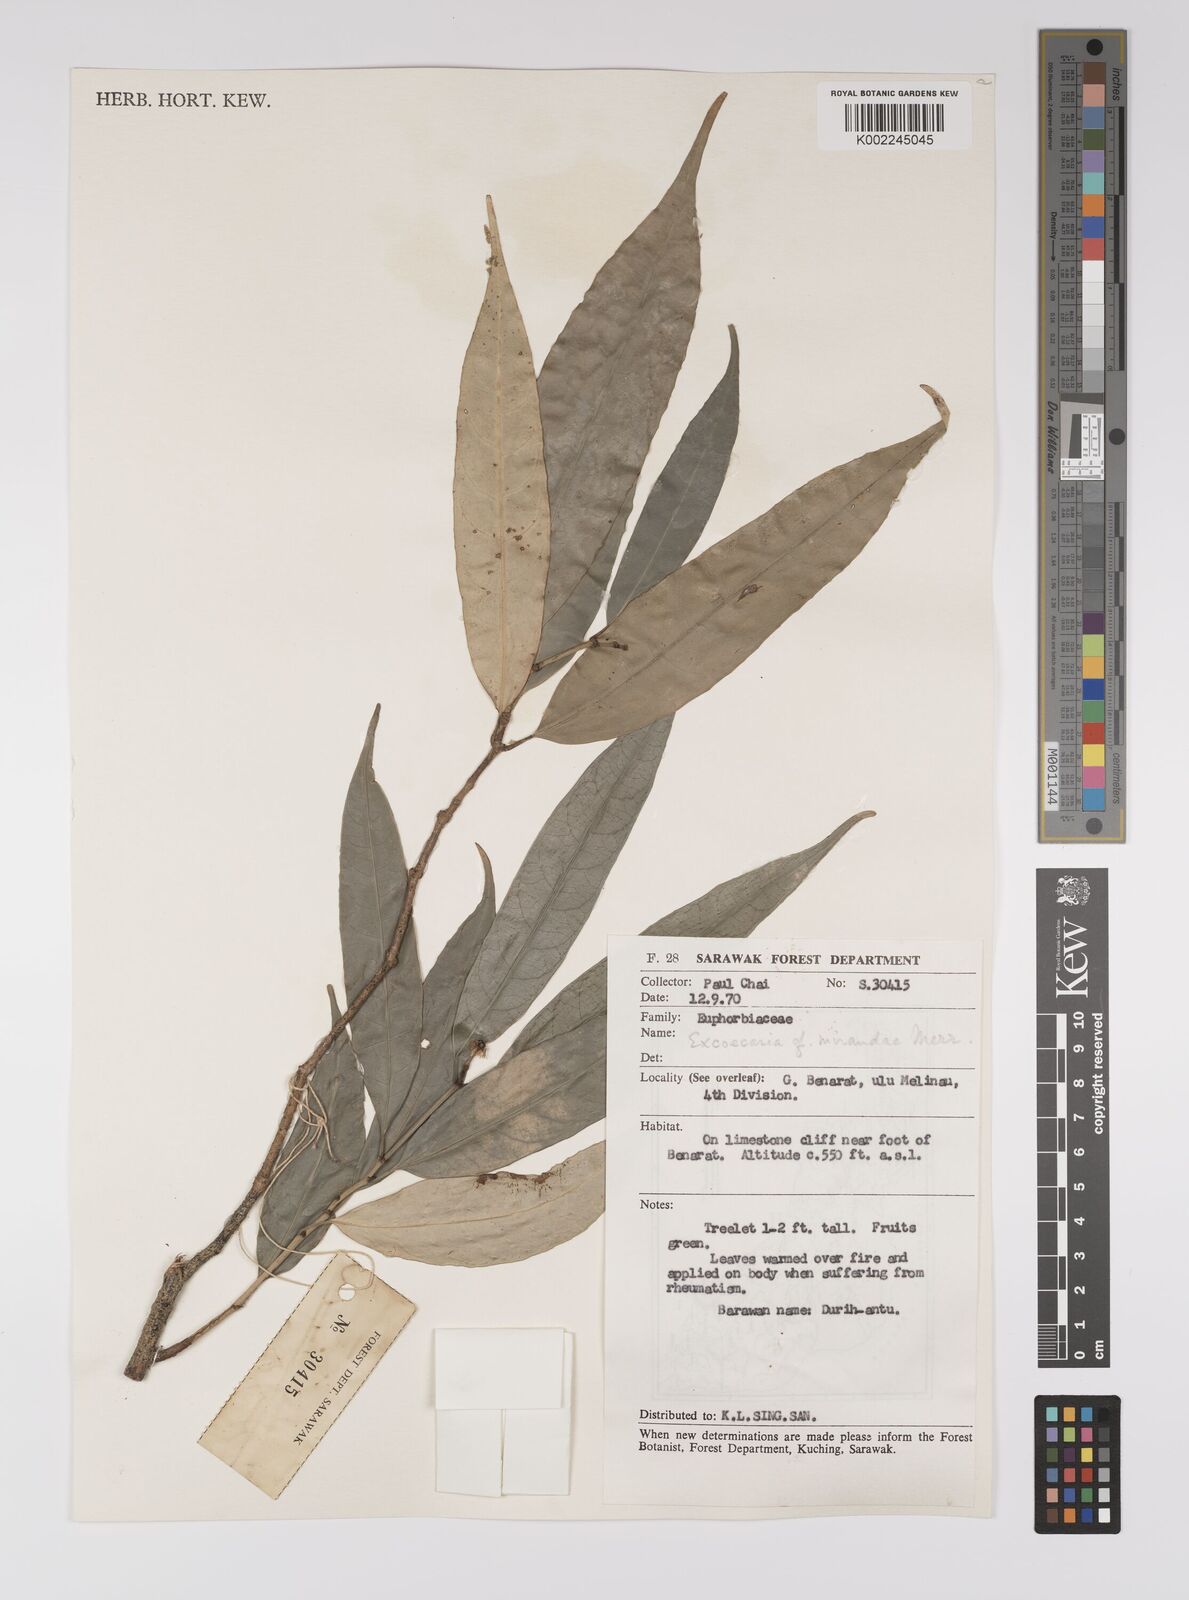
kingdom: Plantae
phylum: Tracheophyta
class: Magnoliopsida
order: Malpighiales
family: Euphorbiaceae
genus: Excoecaria
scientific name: Excoecaria borneensis
